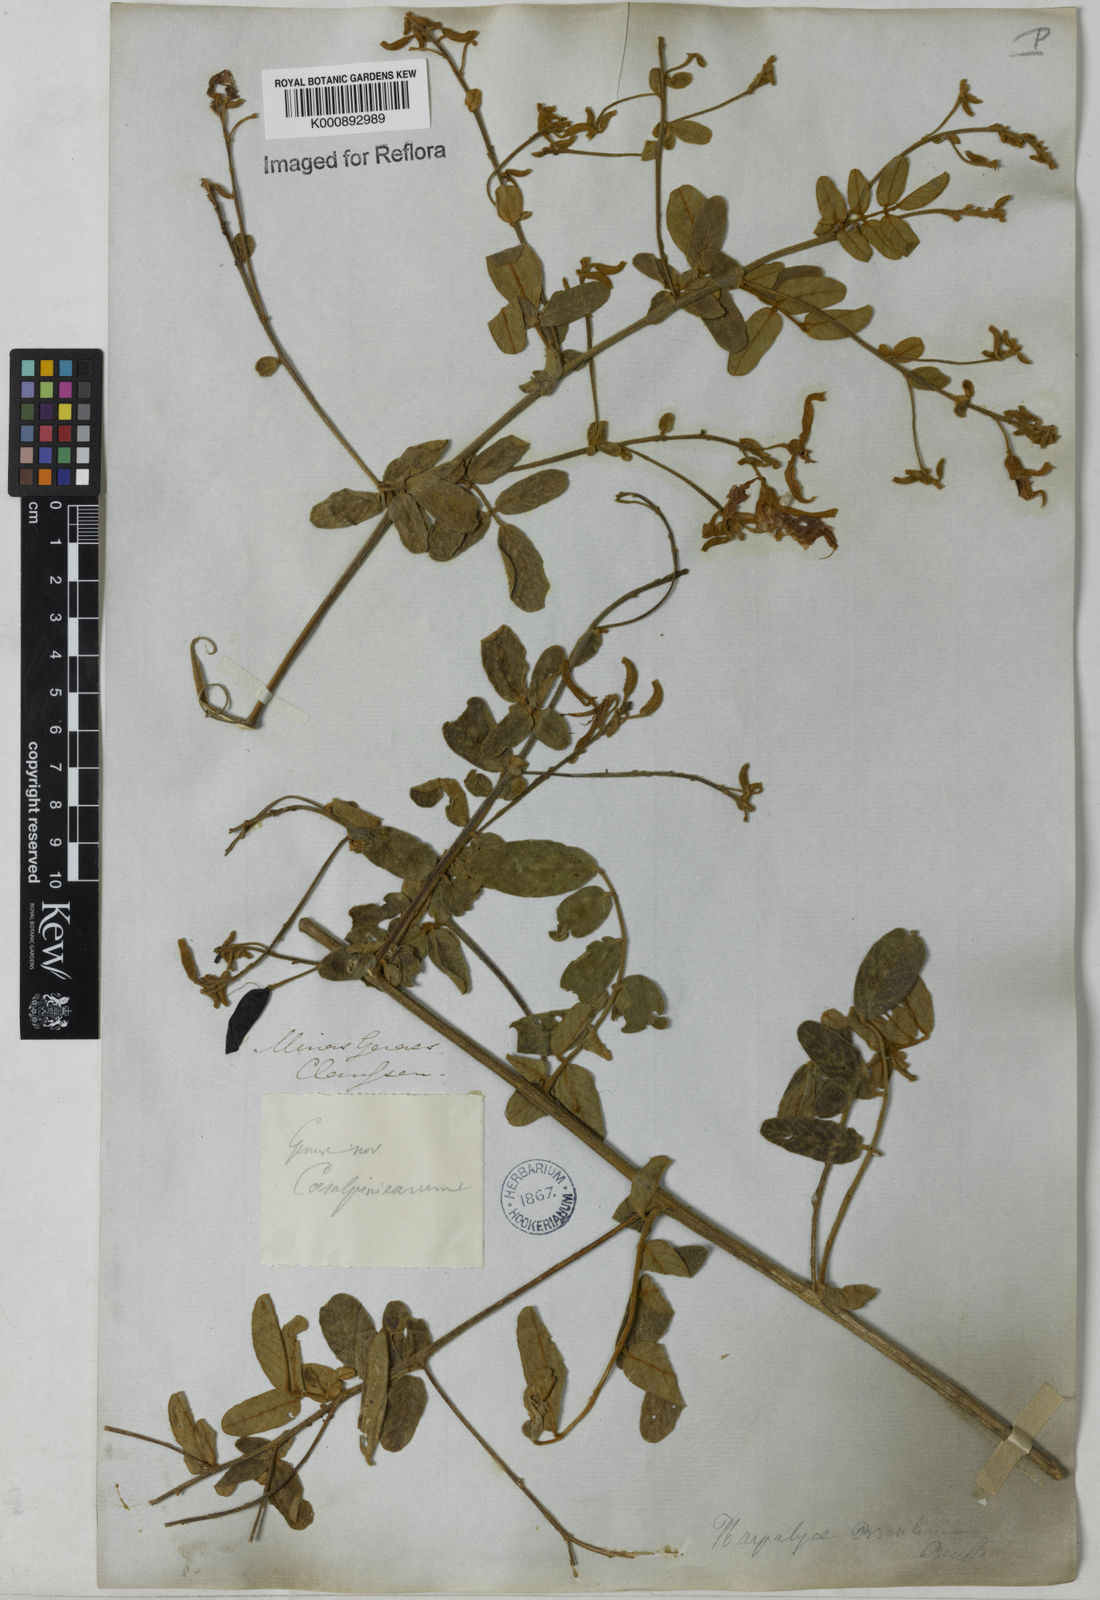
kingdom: Plantae
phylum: Tracheophyta
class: Magnoliopsida
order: Fabales
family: Fabaceae
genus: Harpalyce
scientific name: Harpalyce brasiliana
